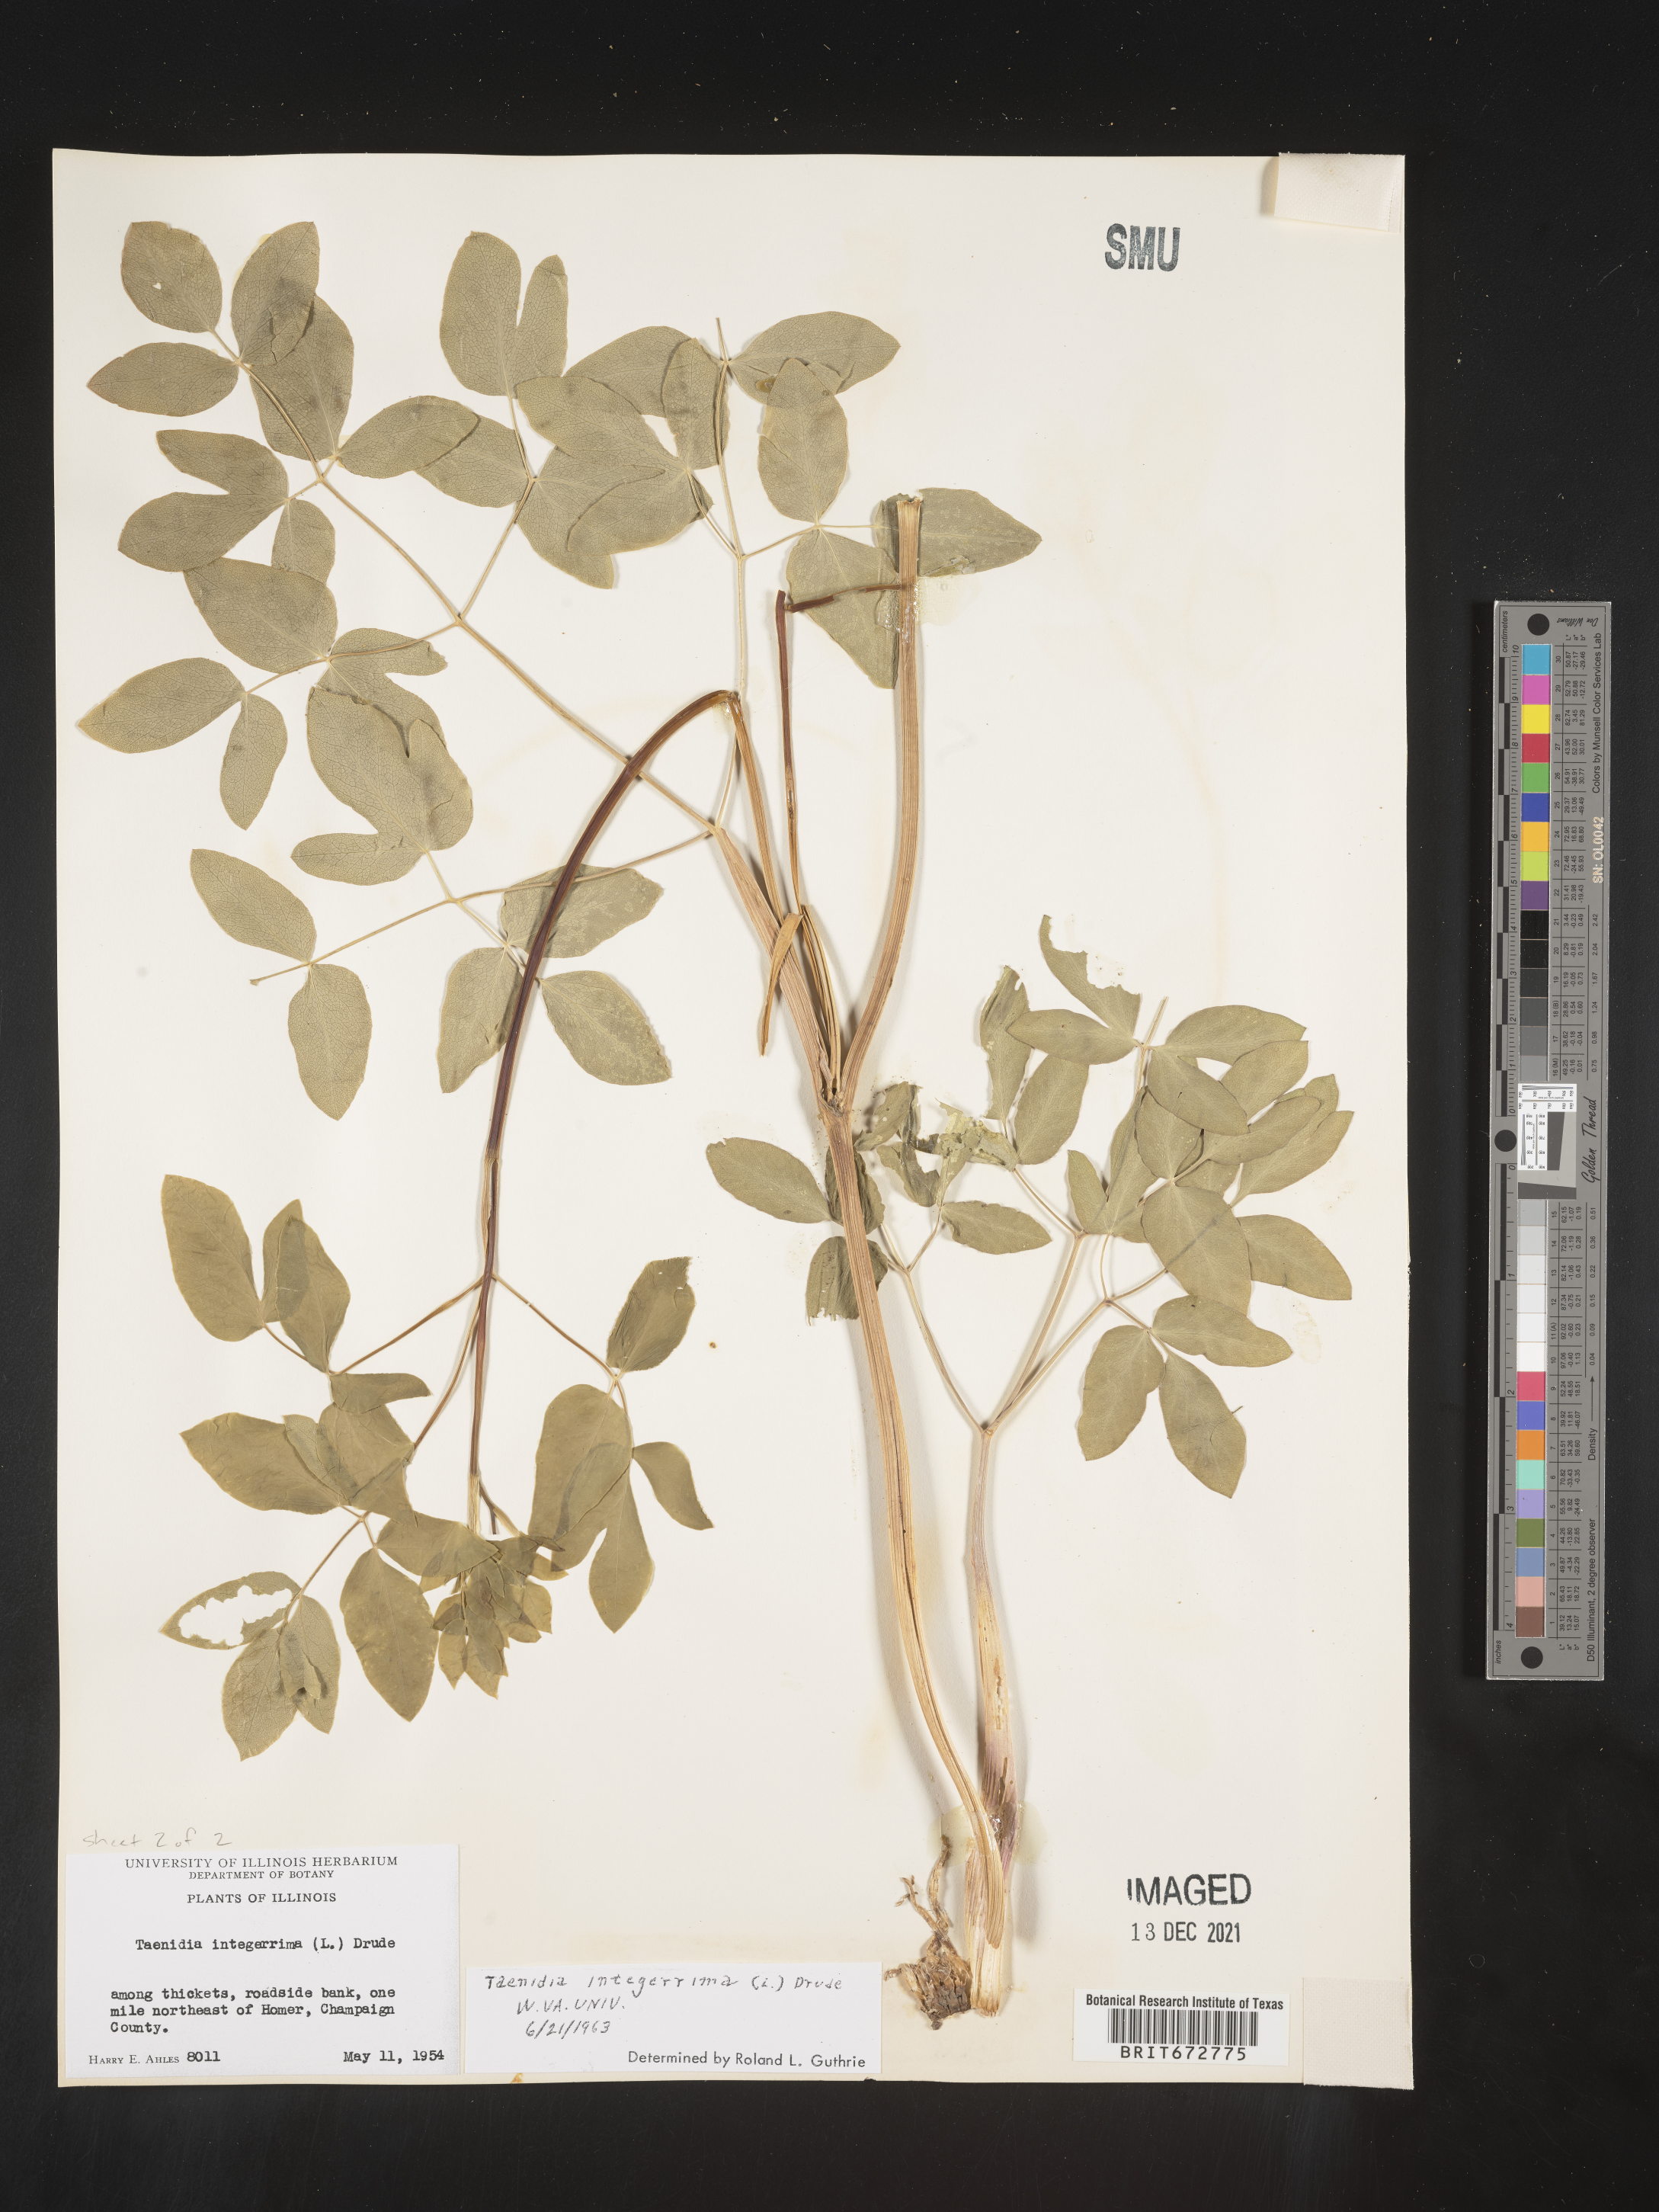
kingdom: Plantae
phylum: Tracheophyta
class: Magnoliopsida
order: Apiales
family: Apiaceae
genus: Taenidia
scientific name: Taenidia integerrima
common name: Golden alexander
